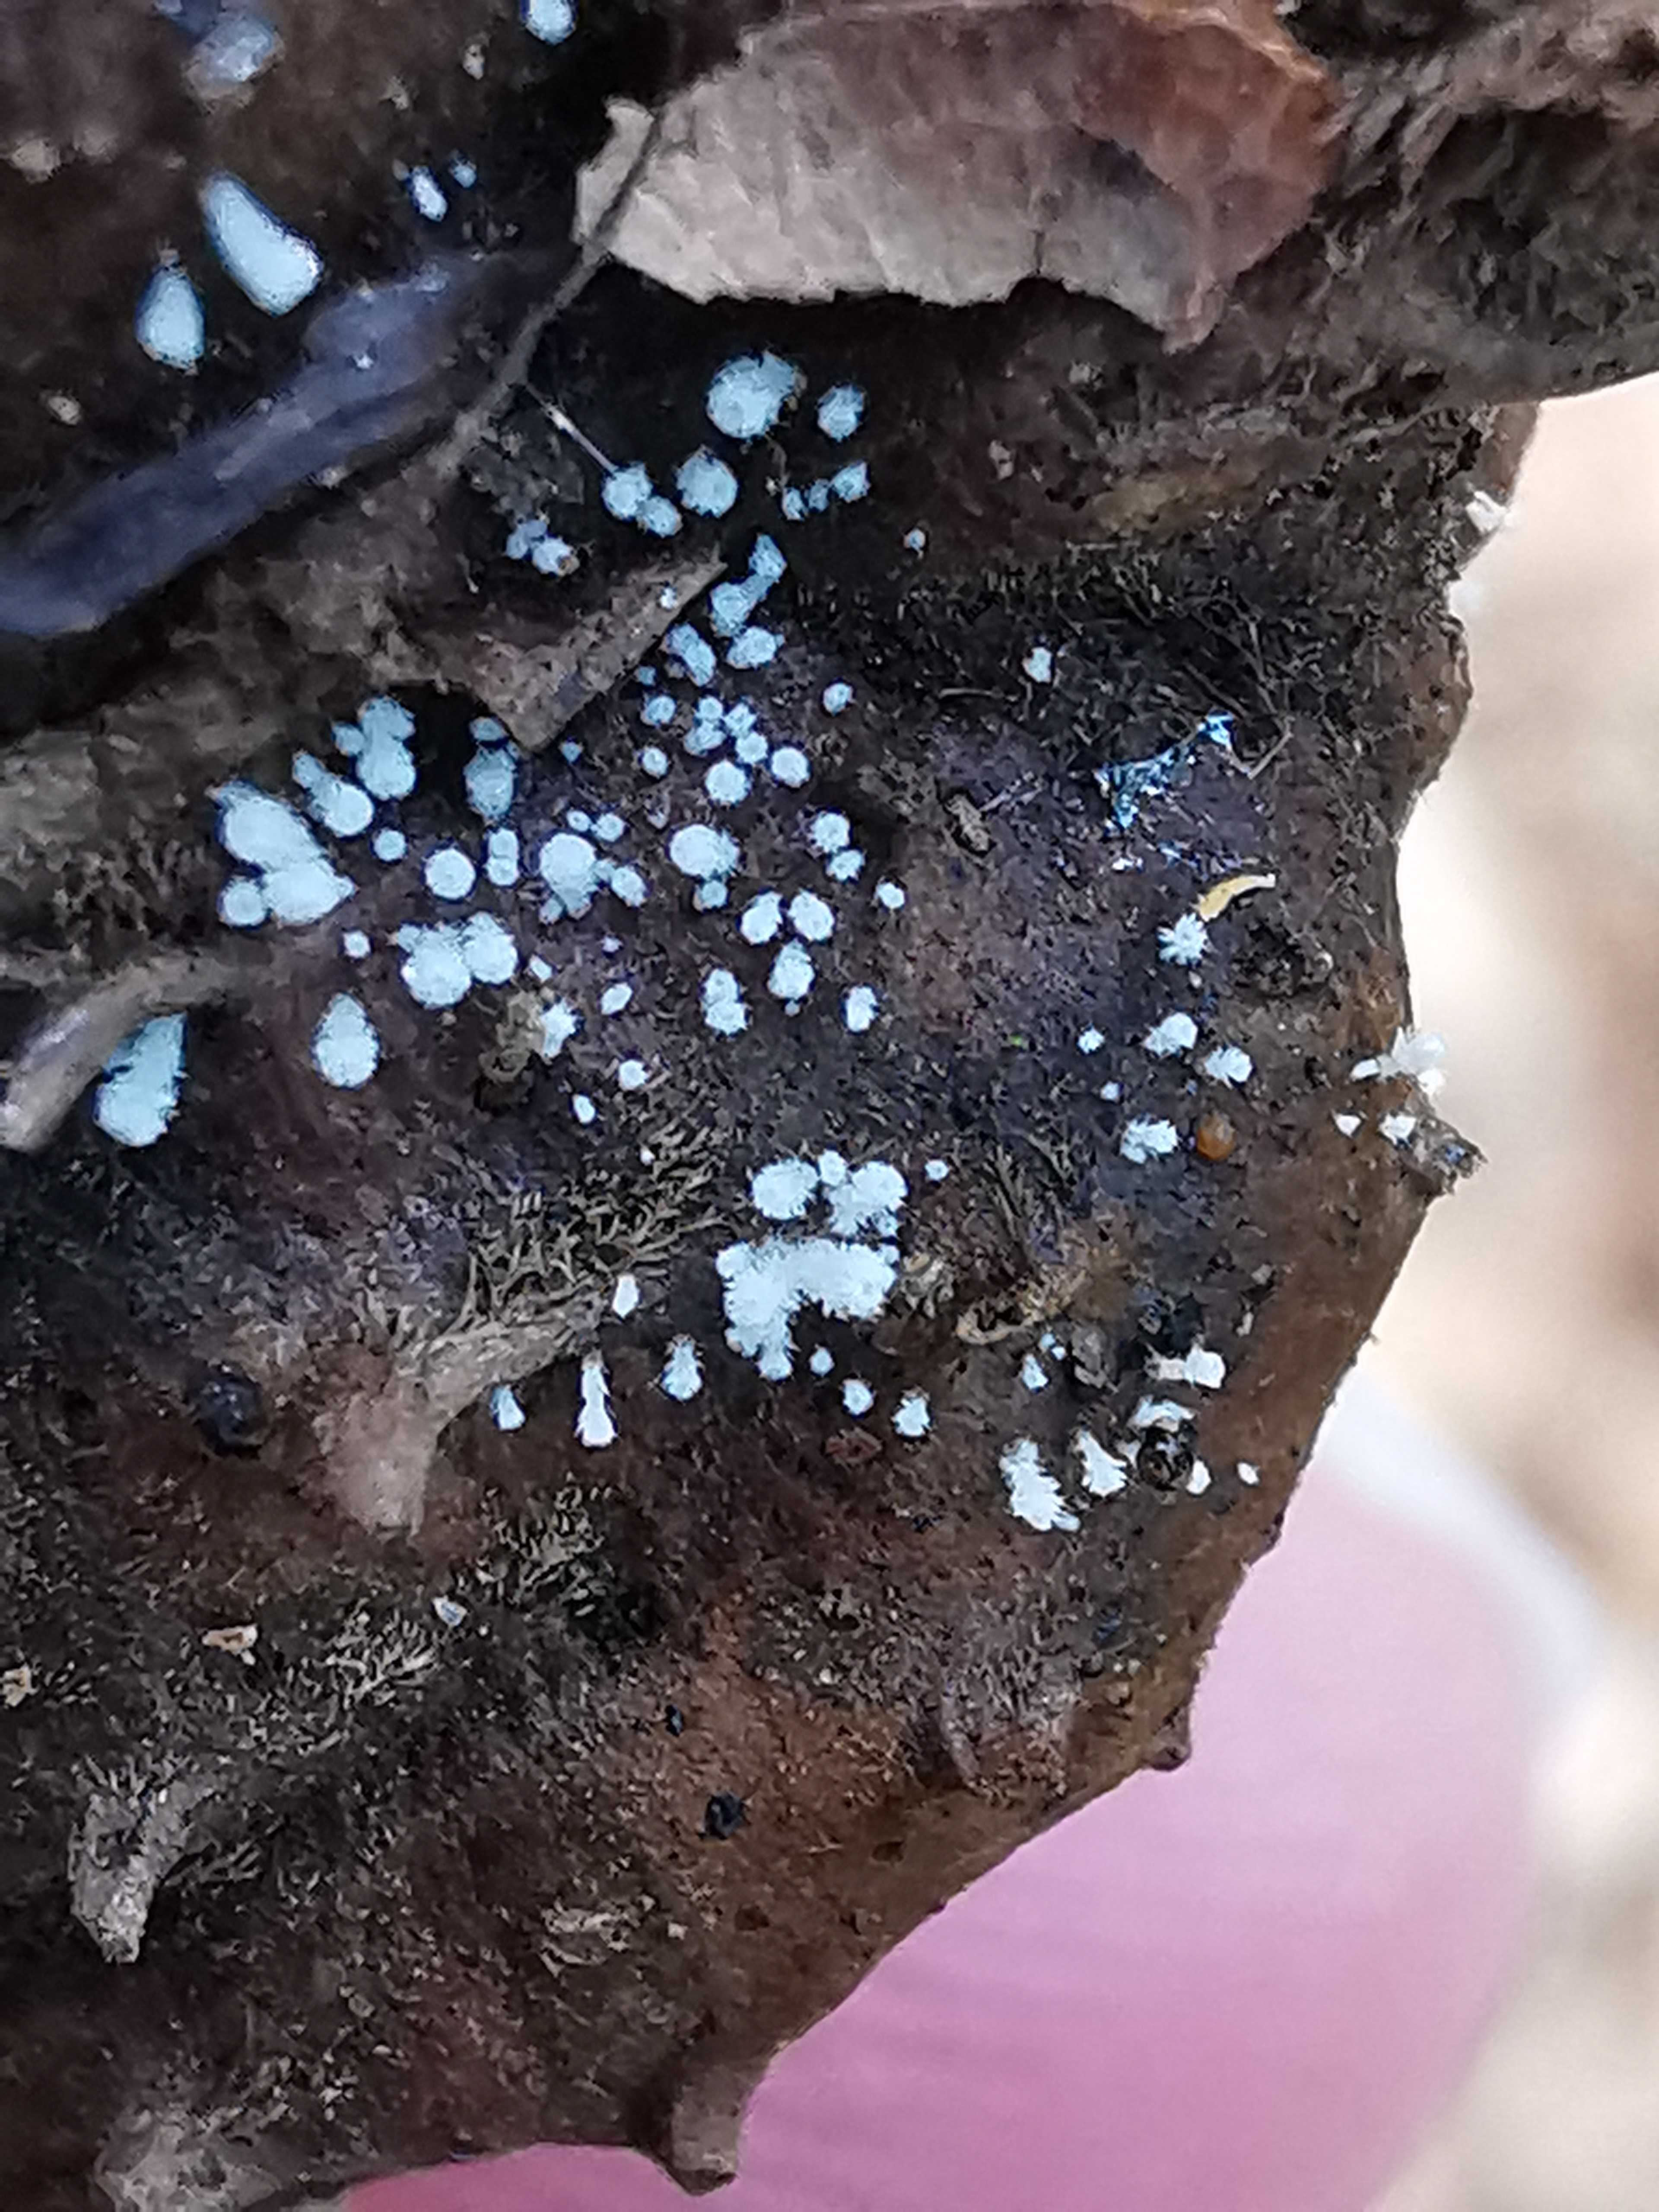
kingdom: Fungi
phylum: Ascomycota
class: Leotiomycetes
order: Helotiales
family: Lachnaceae
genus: Lachnum
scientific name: Lachnum virgineum
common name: jomfru-frynseskive
